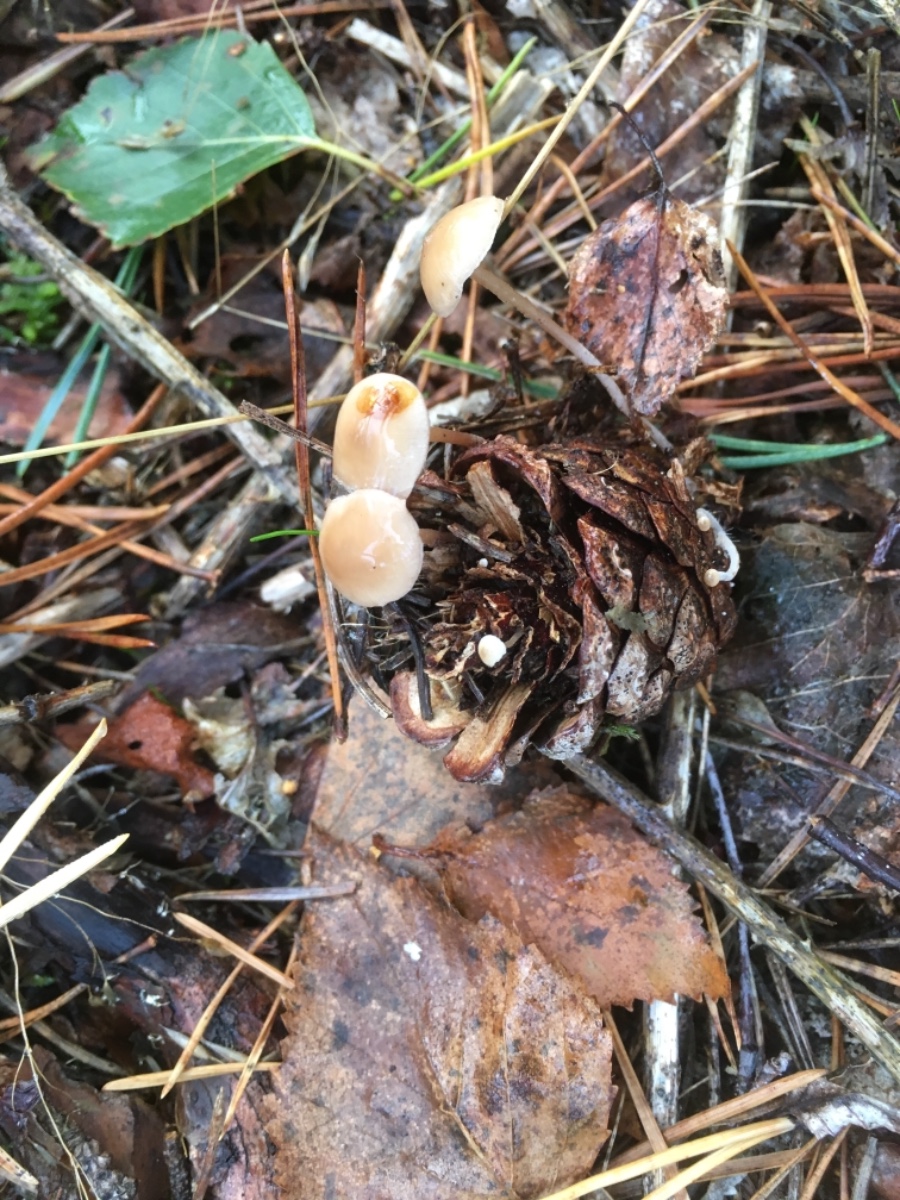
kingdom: Fungi
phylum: Basidiomycota
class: Agaricomycetes
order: Agaricales
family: Marasmiaceae
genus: Baeospora
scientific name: Baeospora myosura
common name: koglebruskhat
